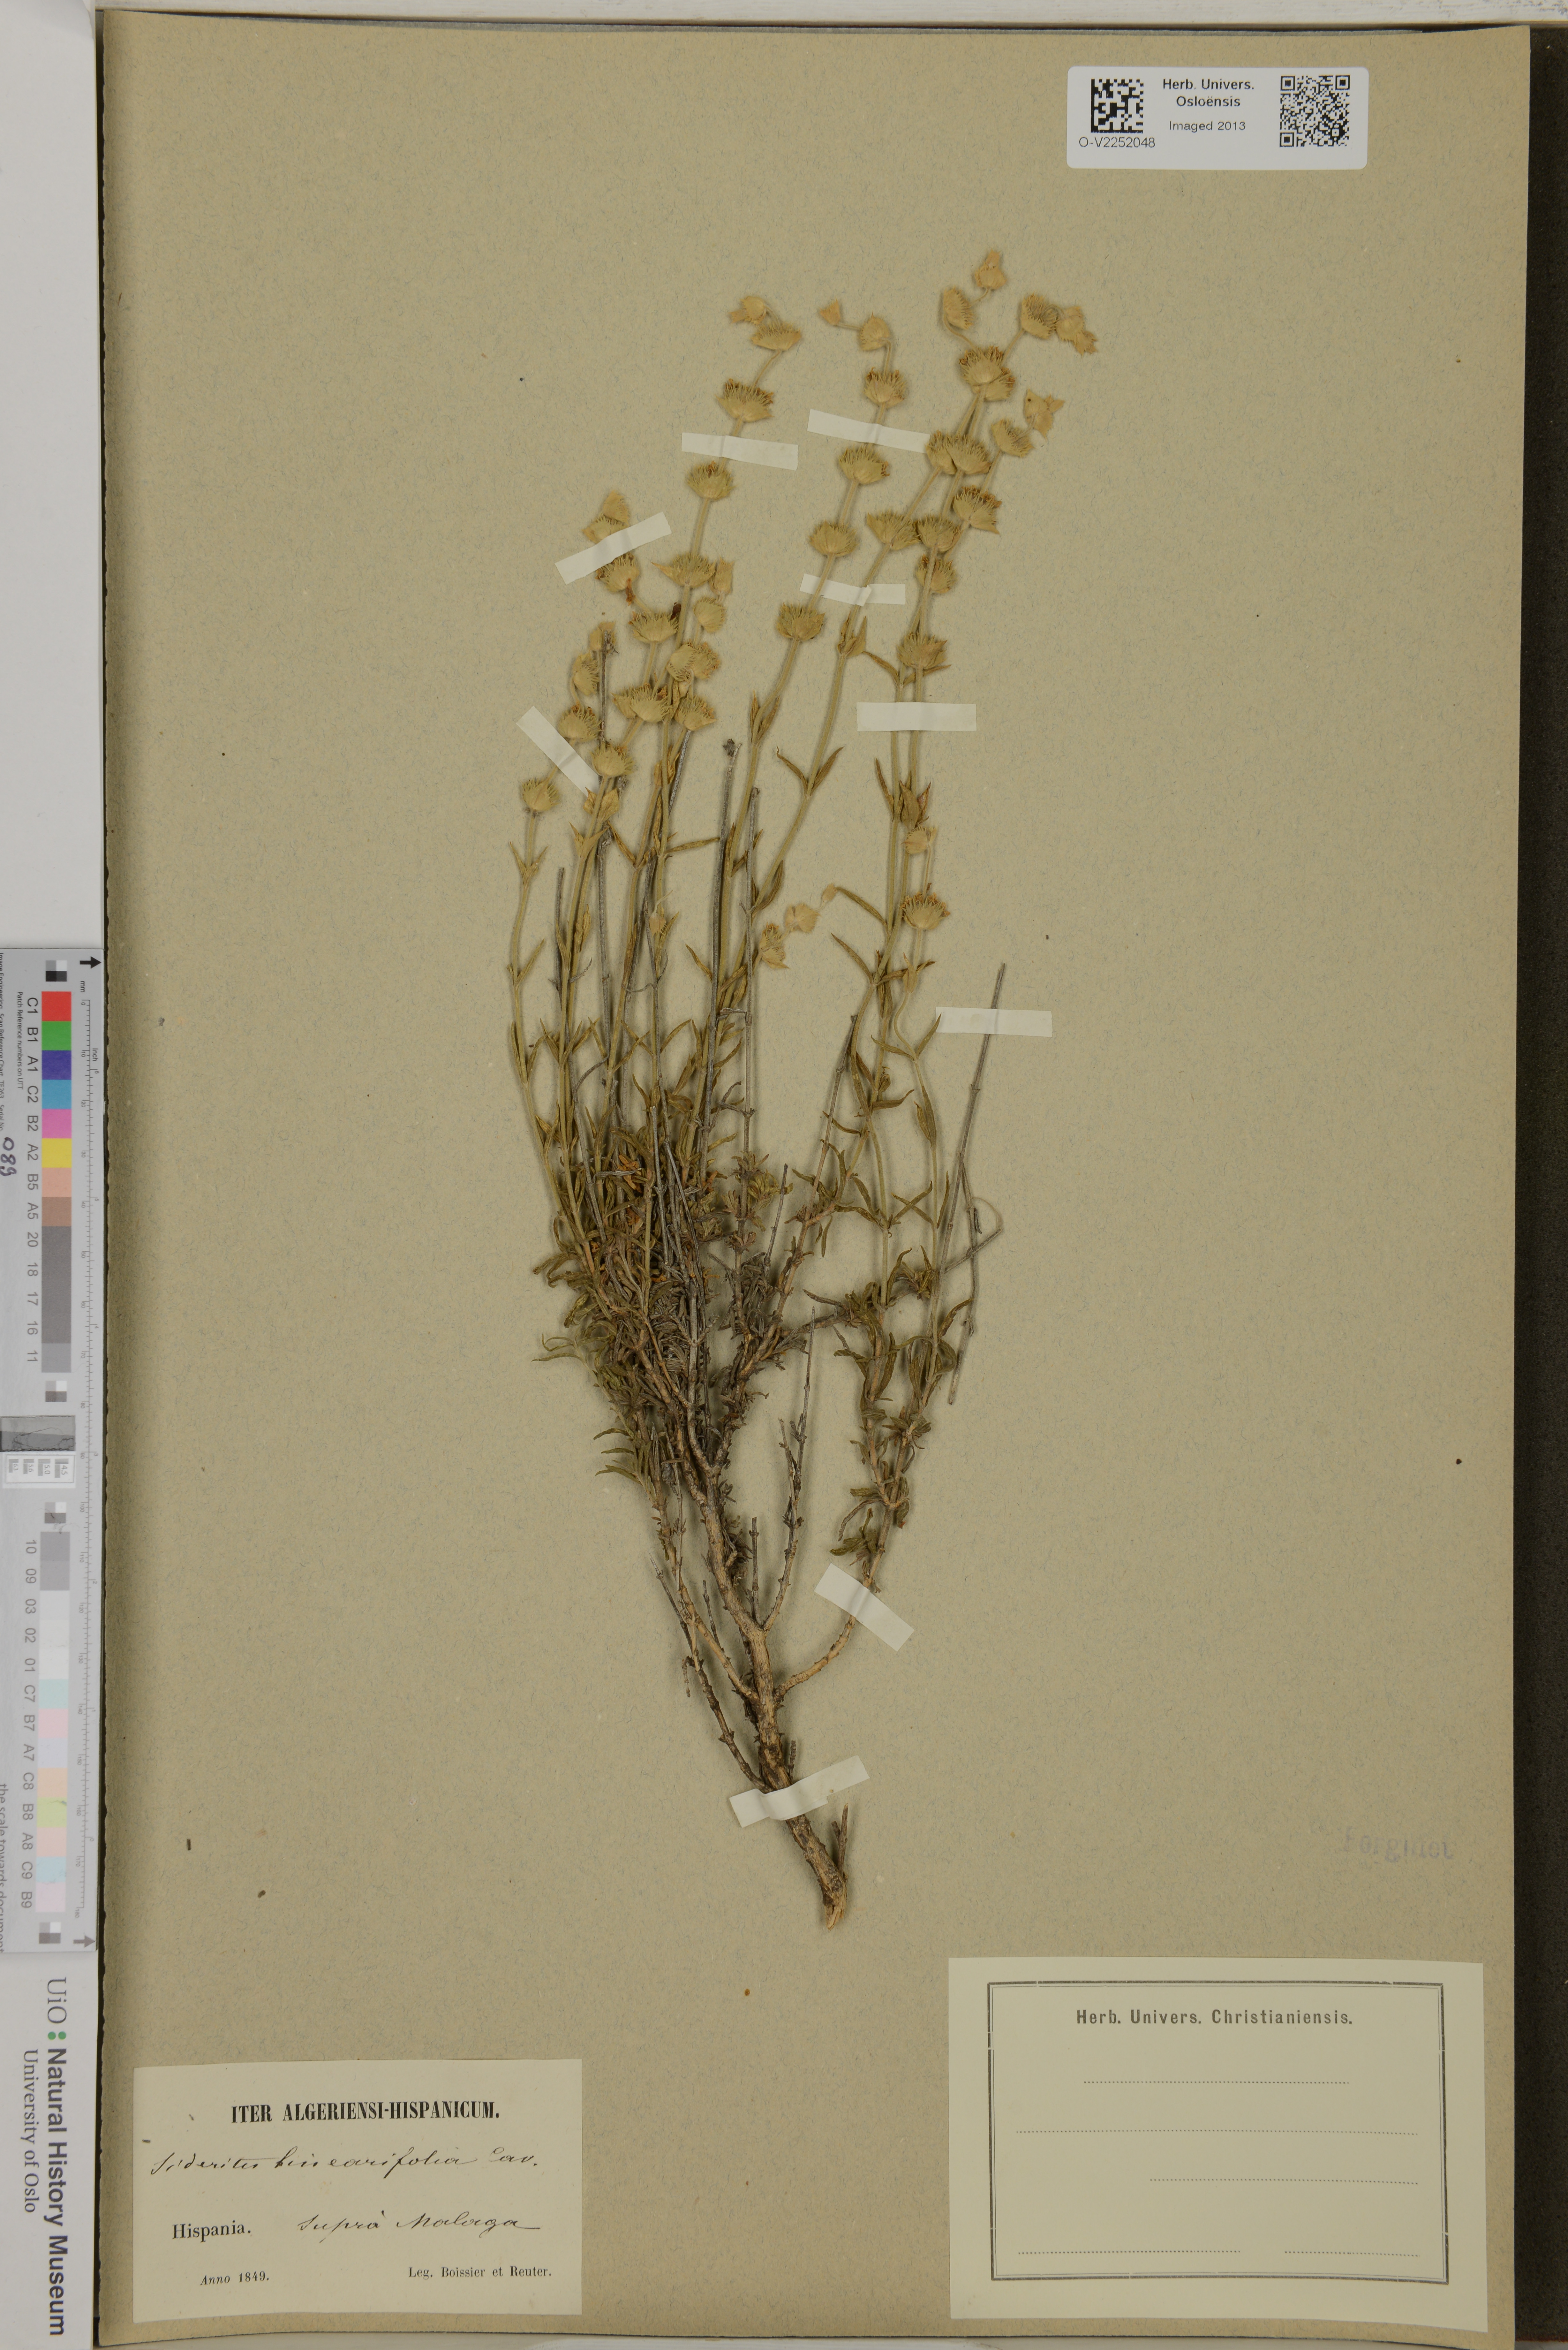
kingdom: Plantae
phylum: Tracheophyta
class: Magnoliopsida
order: Lamiales
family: Lamiaceae
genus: Sideritis
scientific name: Sideritis linearifolia
